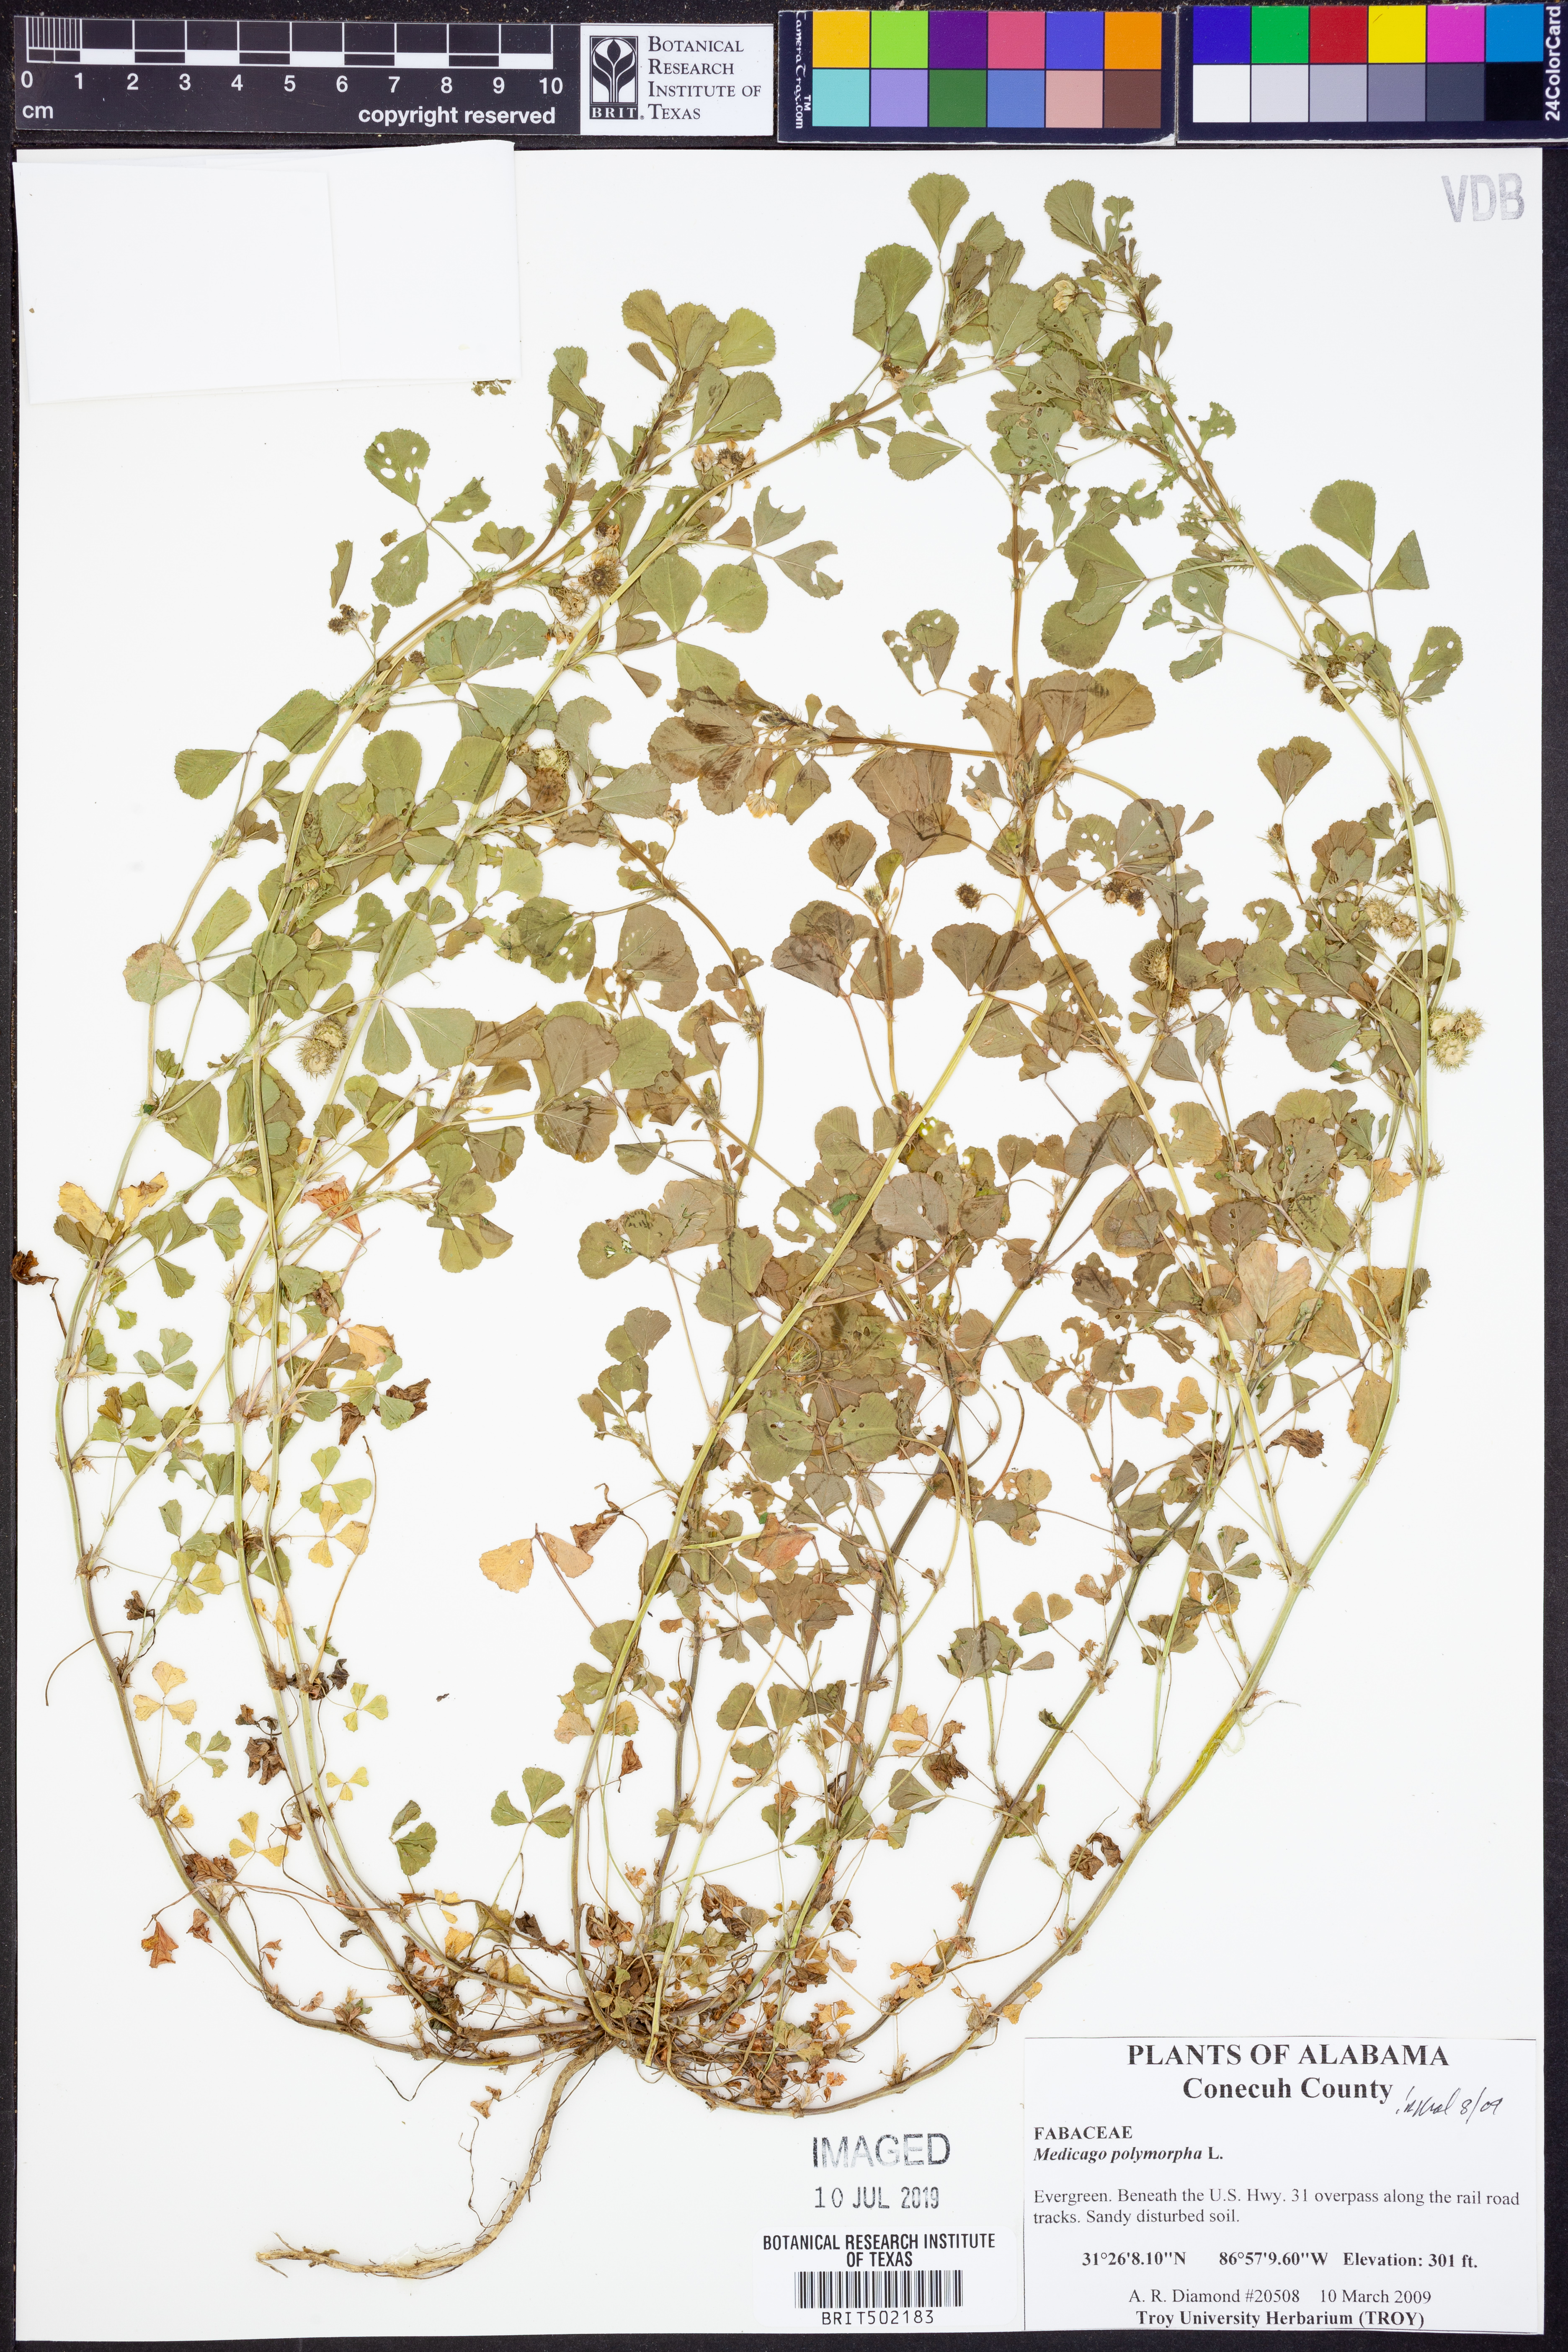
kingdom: Plantae
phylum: Tracheophyta
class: Magnoliopsida
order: Fabales
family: Fabaceae
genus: Medicago
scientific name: Medicago polymorpha
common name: Burclover
